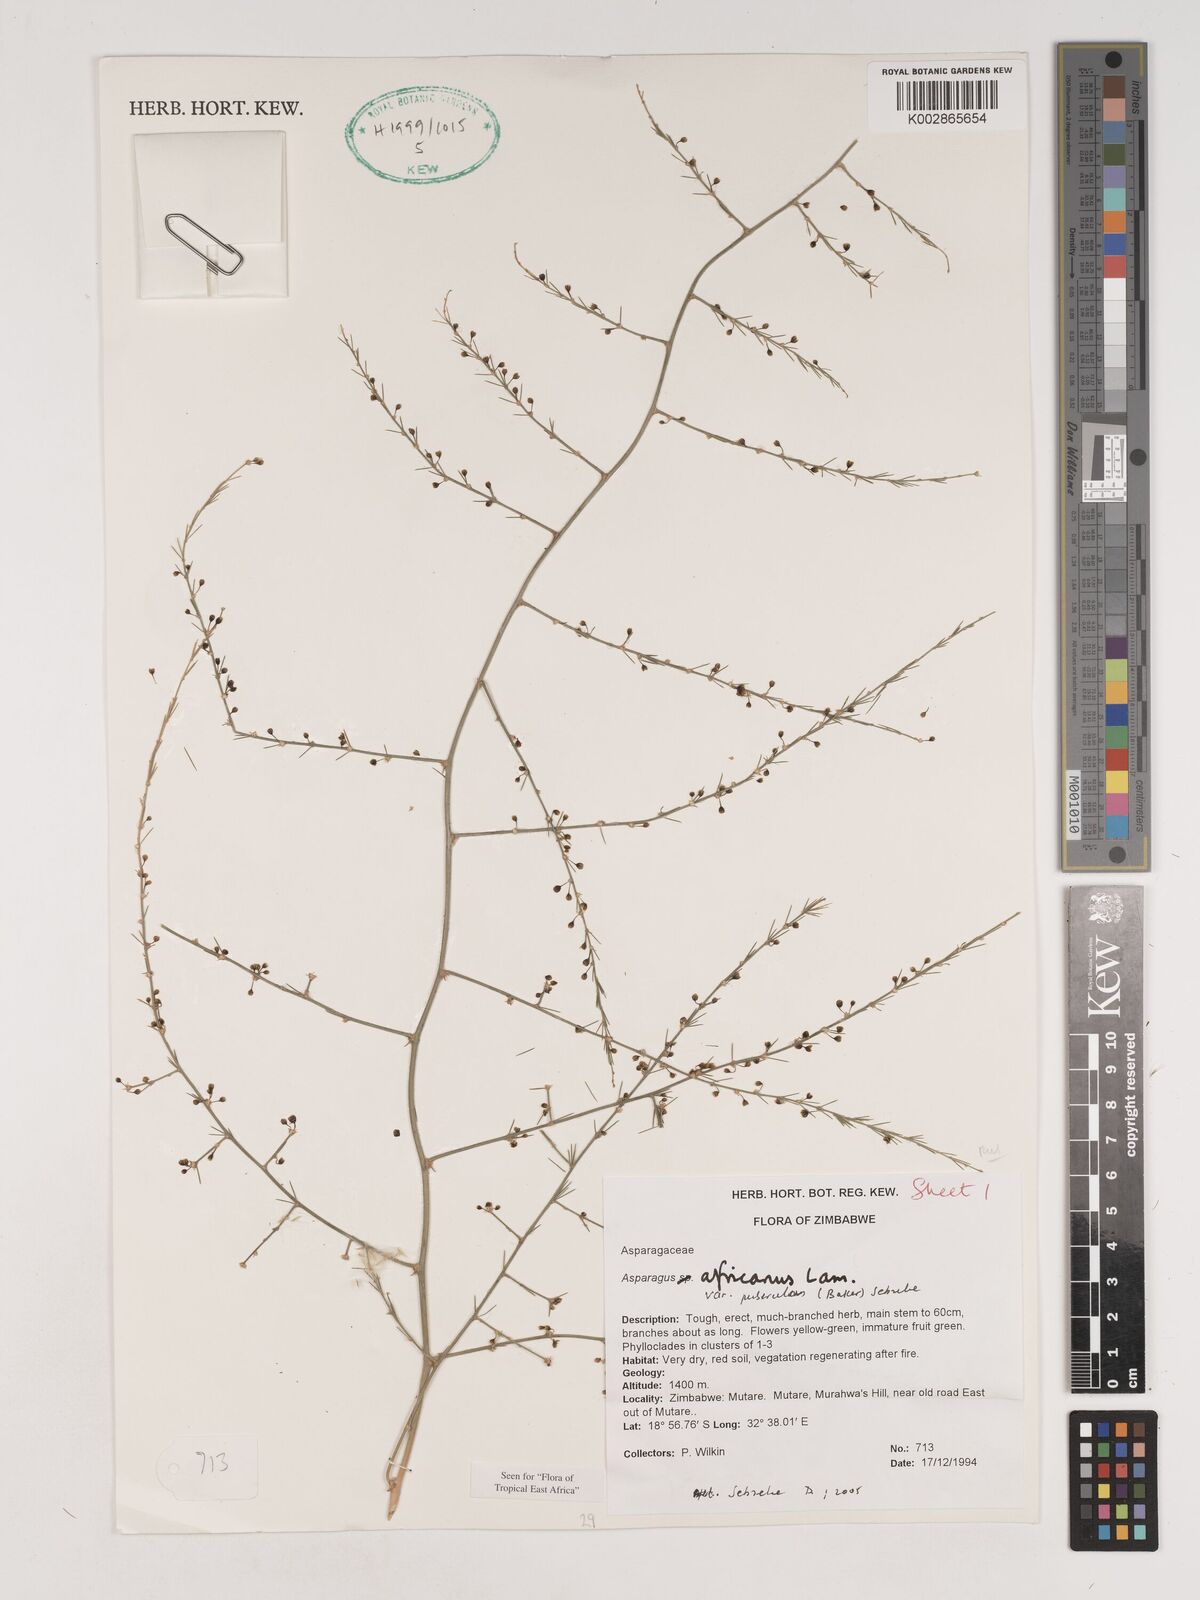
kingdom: Plantae
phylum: Tracheophyta
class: Liliopsida
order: Asparagales
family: Asparagaceae
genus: Asparagus
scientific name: Asparagus africanus
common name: Asparagus-fern
